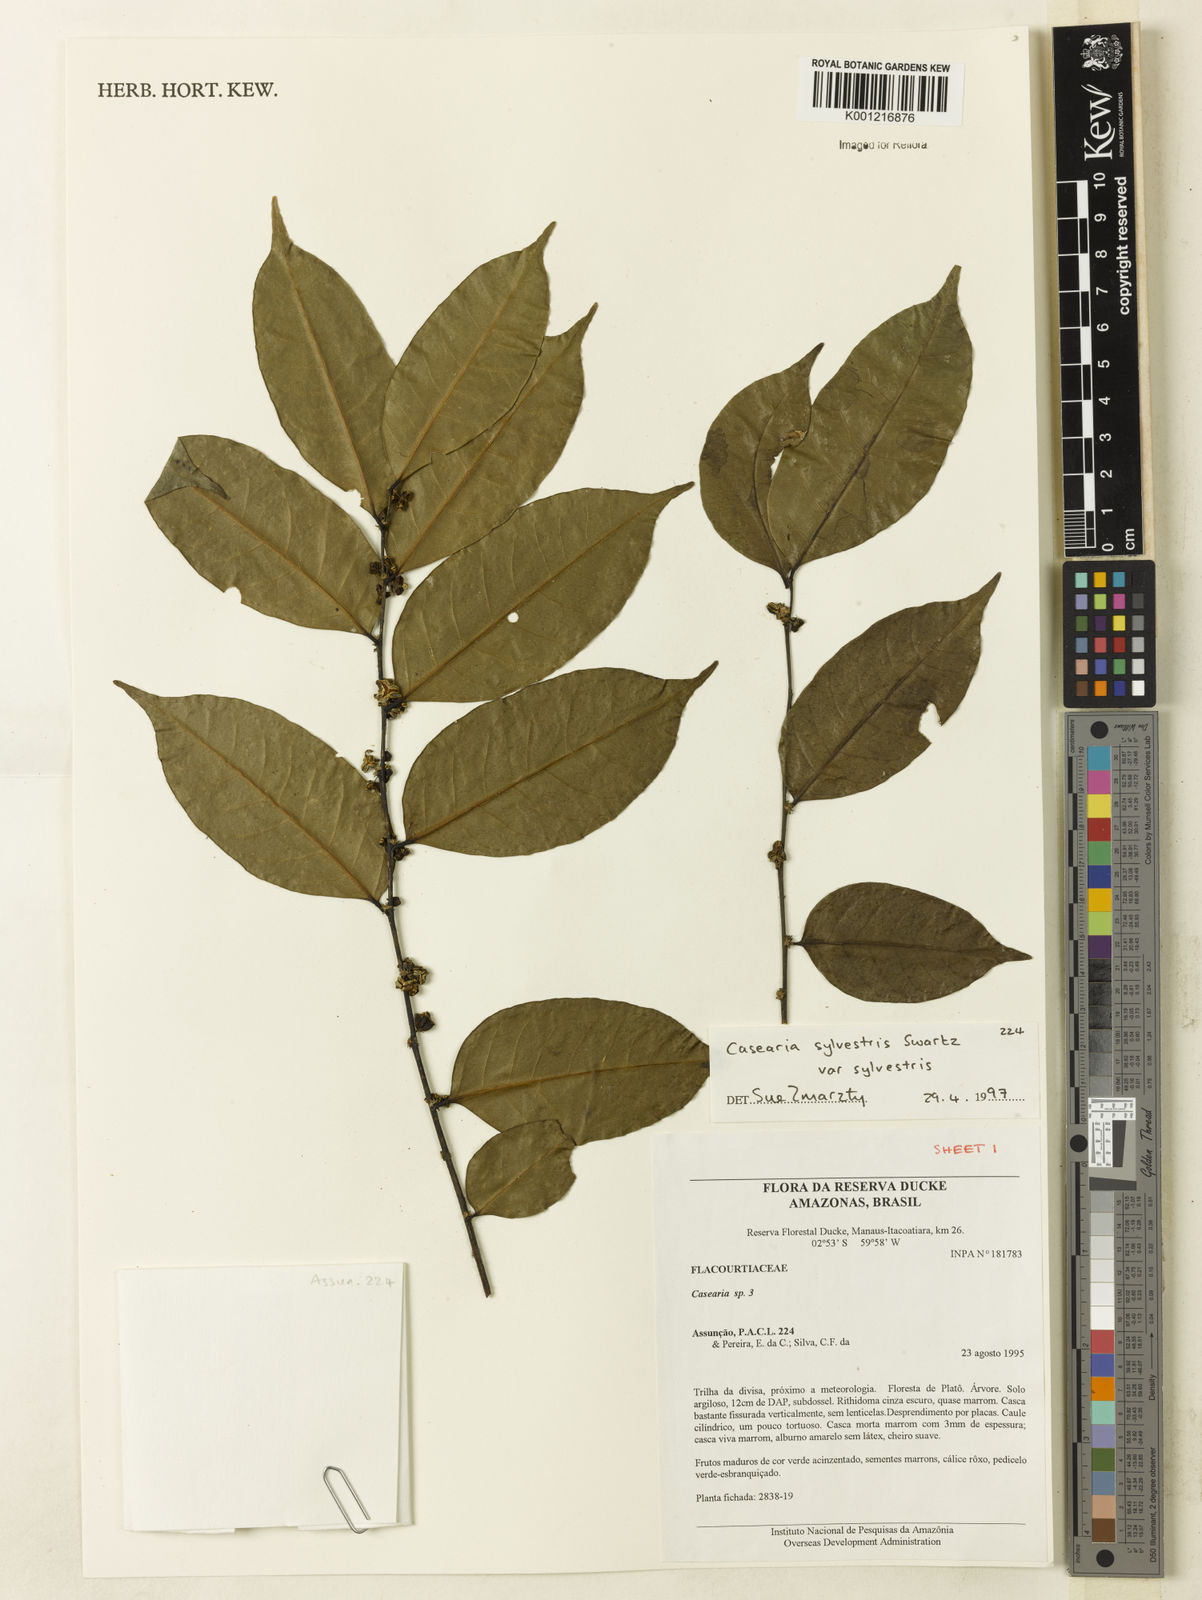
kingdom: Plantae
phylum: Tracheophyta
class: Magnoliopsida
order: Malpighiales
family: Salicaceae
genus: Casearia
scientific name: Casearia sylvestris
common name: Wild sage
